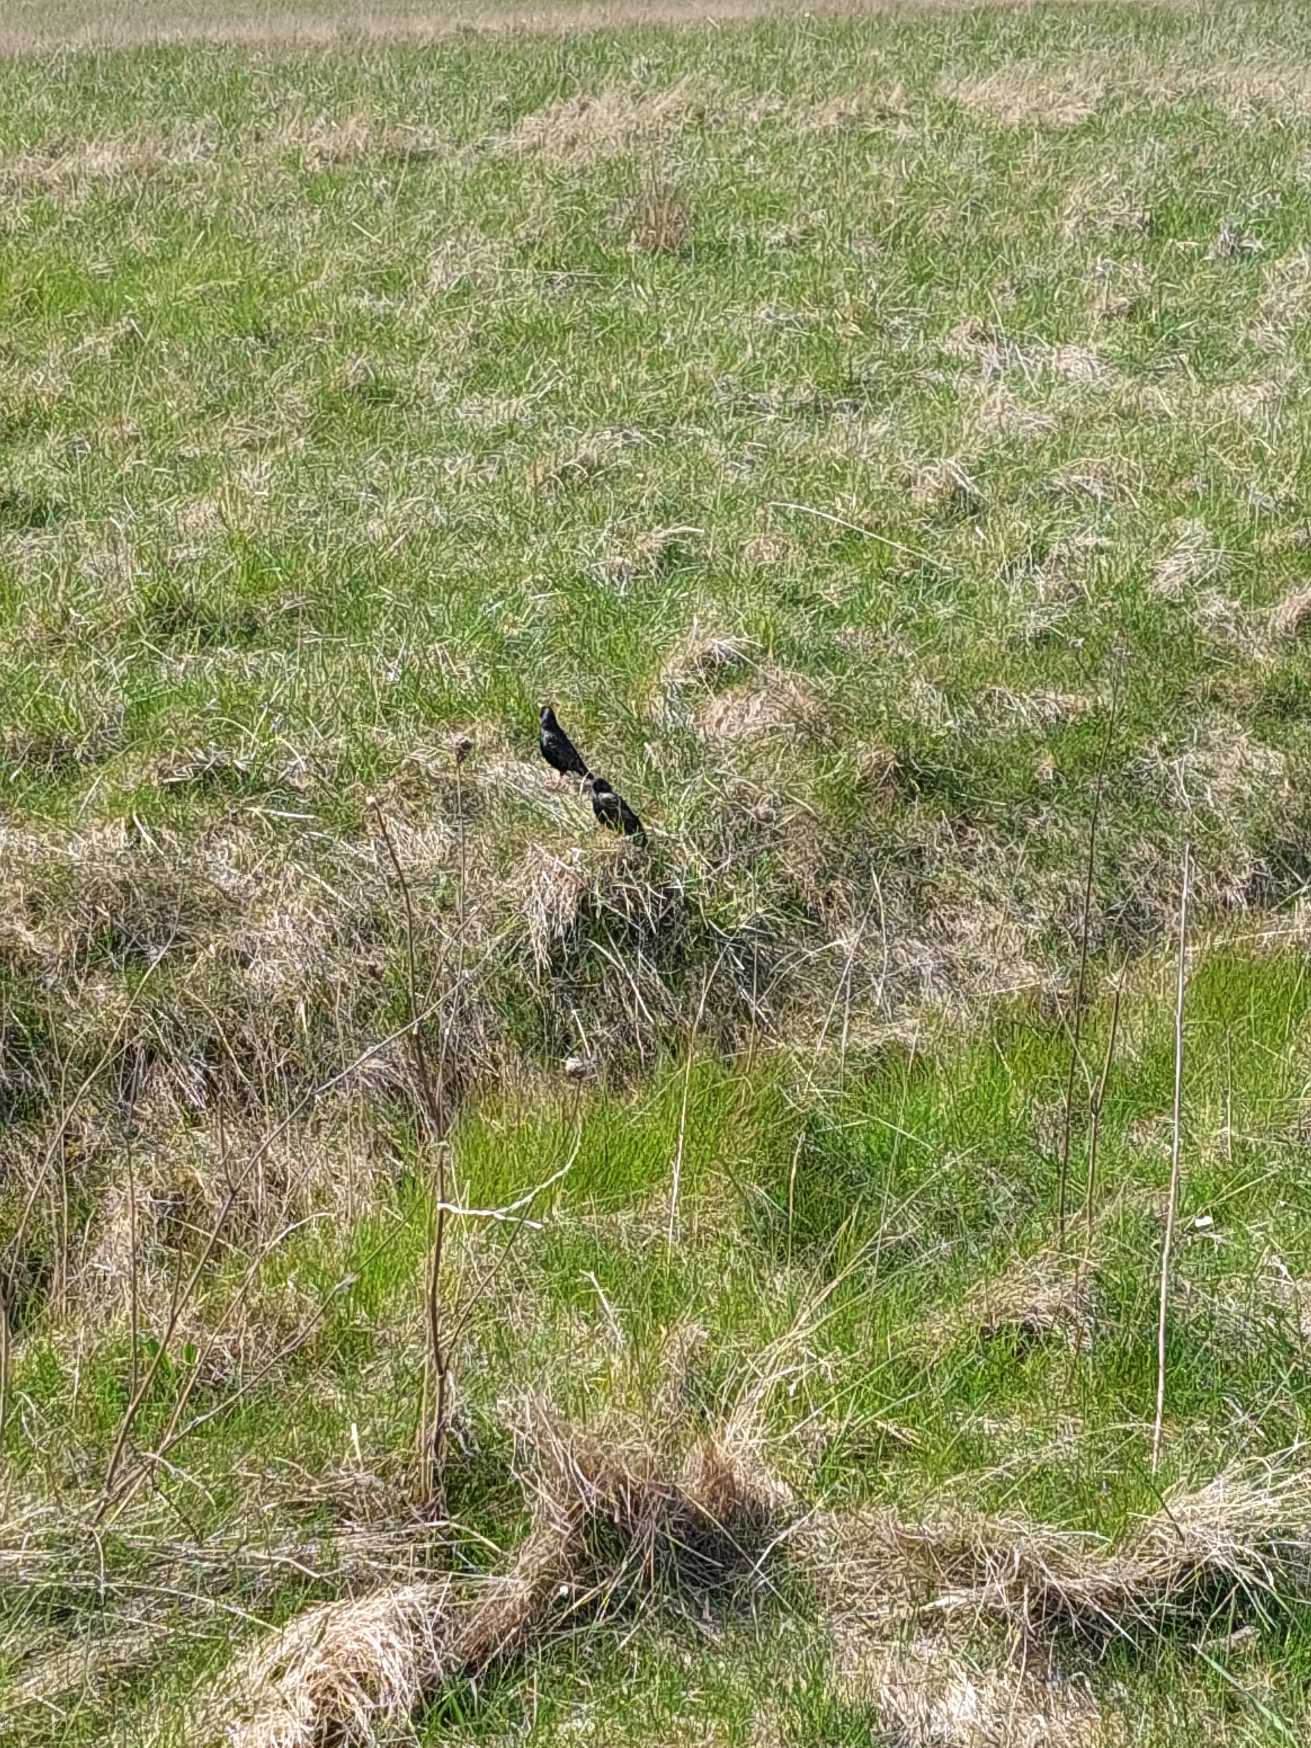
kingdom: Animalia
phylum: Chordata
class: Aves
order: Passeriformes
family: Sturnidae
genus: Sturnus
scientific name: Sturnus vulgaris
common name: Stær
